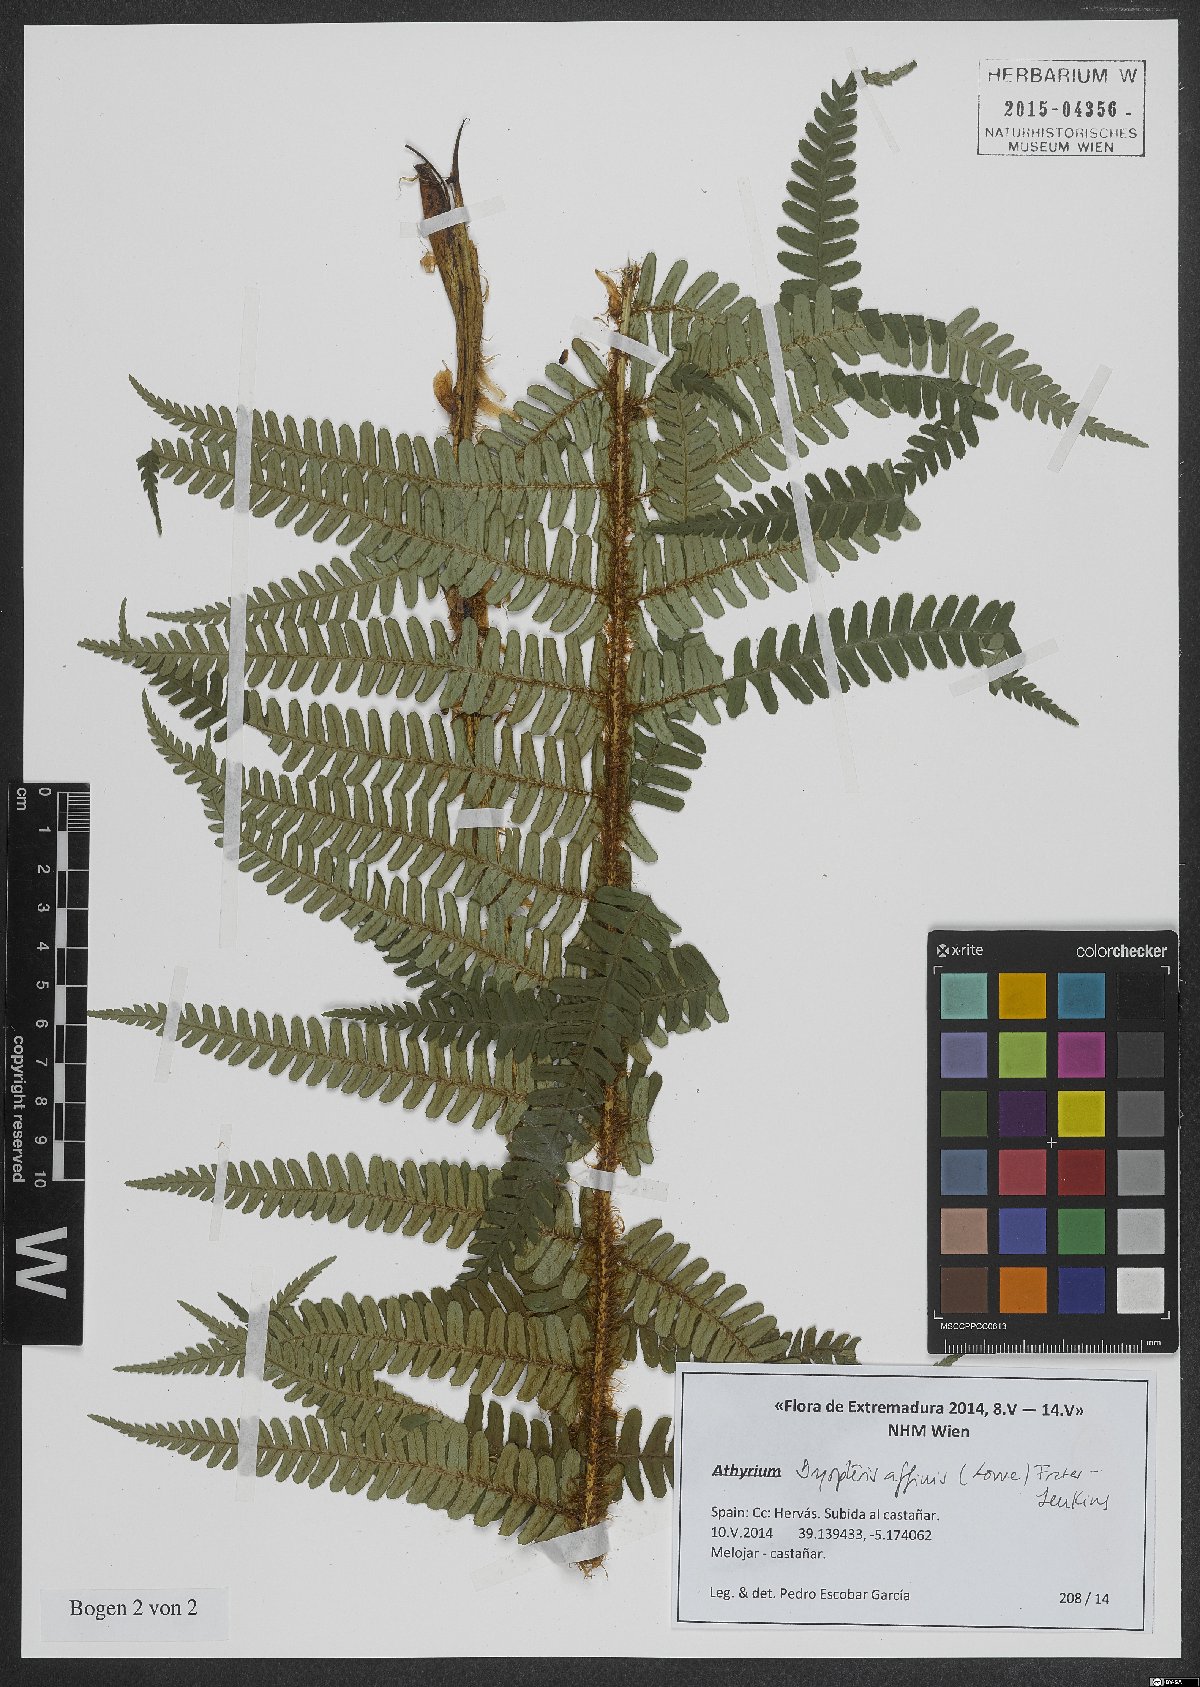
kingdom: Plantae
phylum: Tracheophyta
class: Polypodiopsida
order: Polypodiales
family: Dryopteridaceae
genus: Dryopteris
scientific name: Dryopteris affinis
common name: Scaly male fern
